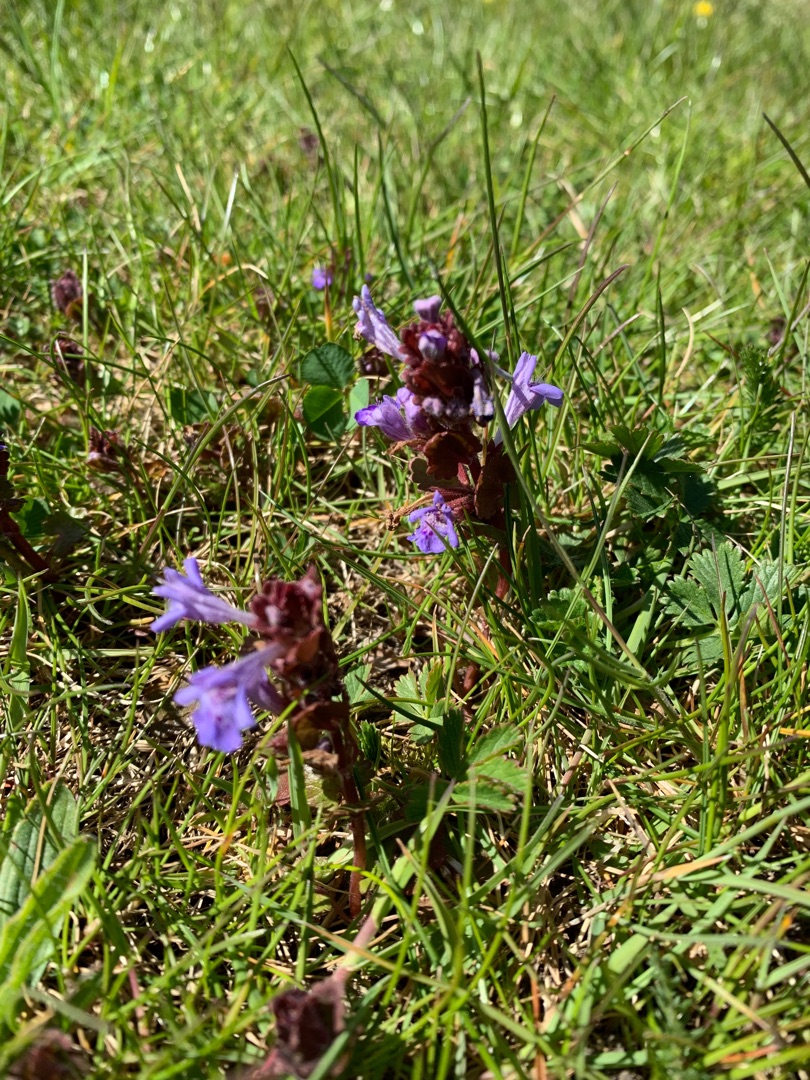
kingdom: Plantae
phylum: Tracheophyta
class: Magnoliopsida
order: Lamiales
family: Lamiaceae
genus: Glechoma
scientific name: Glechoma hederacea
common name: Korsknap
